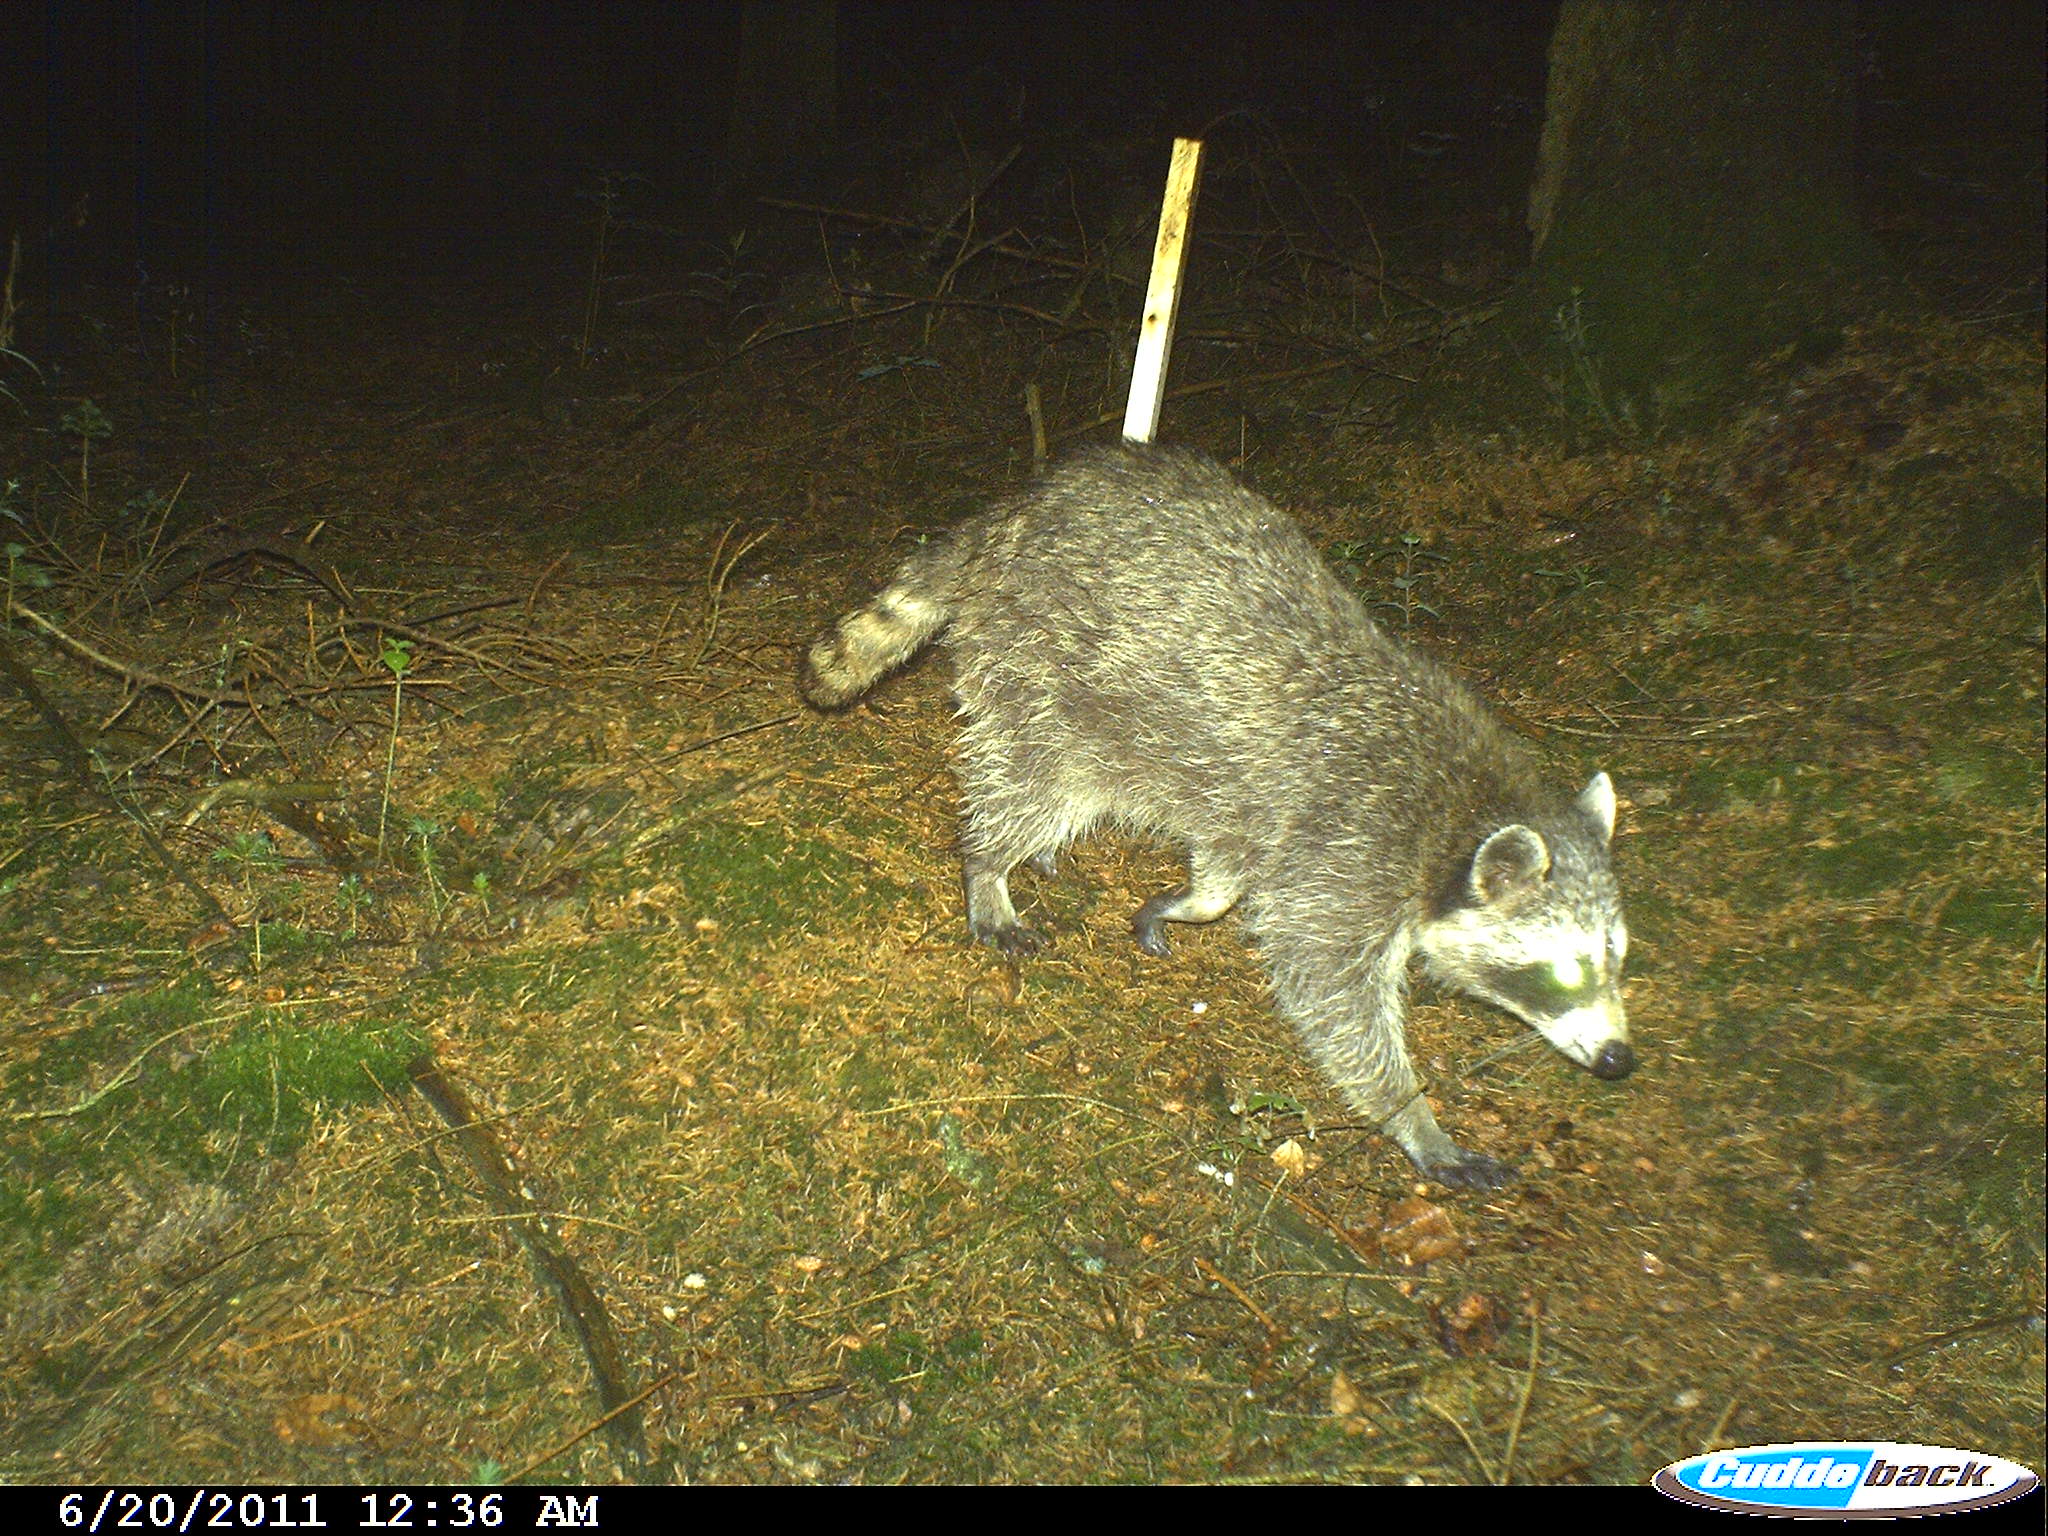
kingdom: Animalia
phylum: Chordata
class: Mammalia
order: Carnivora
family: Procyonidae
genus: Procyon
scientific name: Procyon lotor
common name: Raccoon
